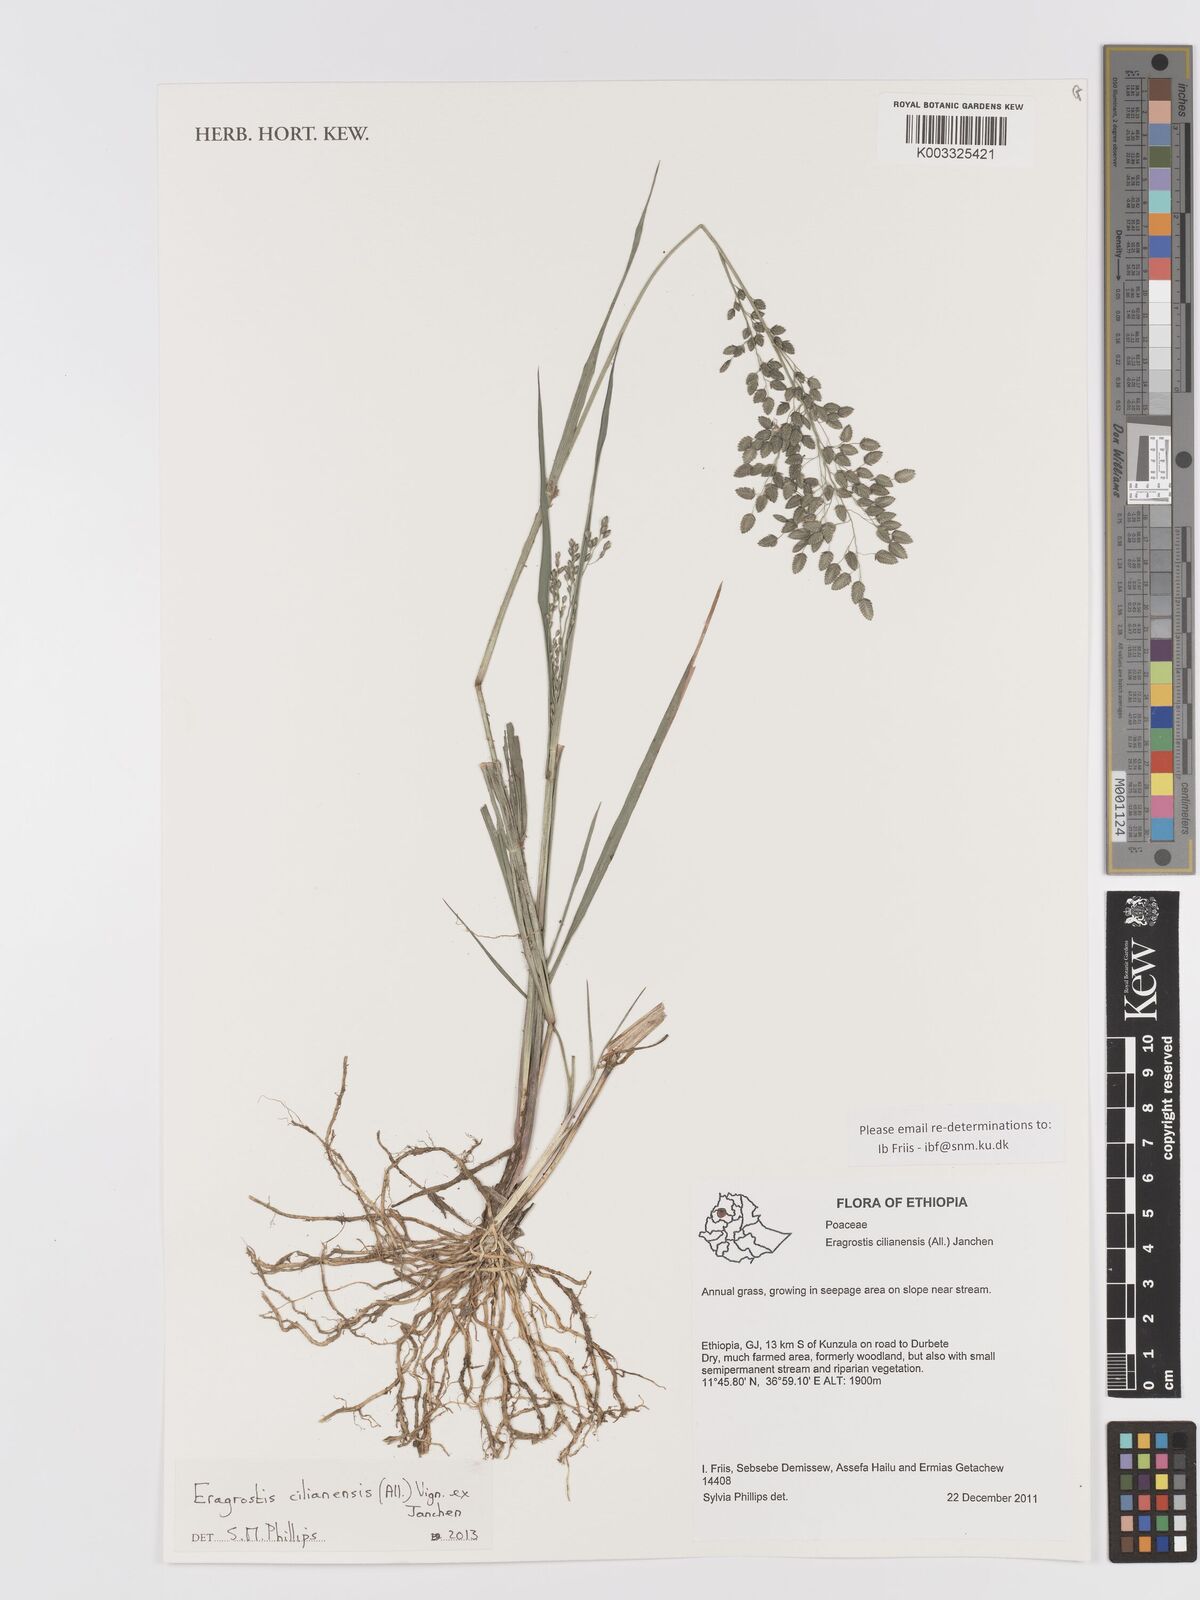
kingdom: Plantae
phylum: Tracheophyta
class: Liliopsida
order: Poales
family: Poaceae
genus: Eragrostis
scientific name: Eragrostis cilianensis
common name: Stinkgrass
